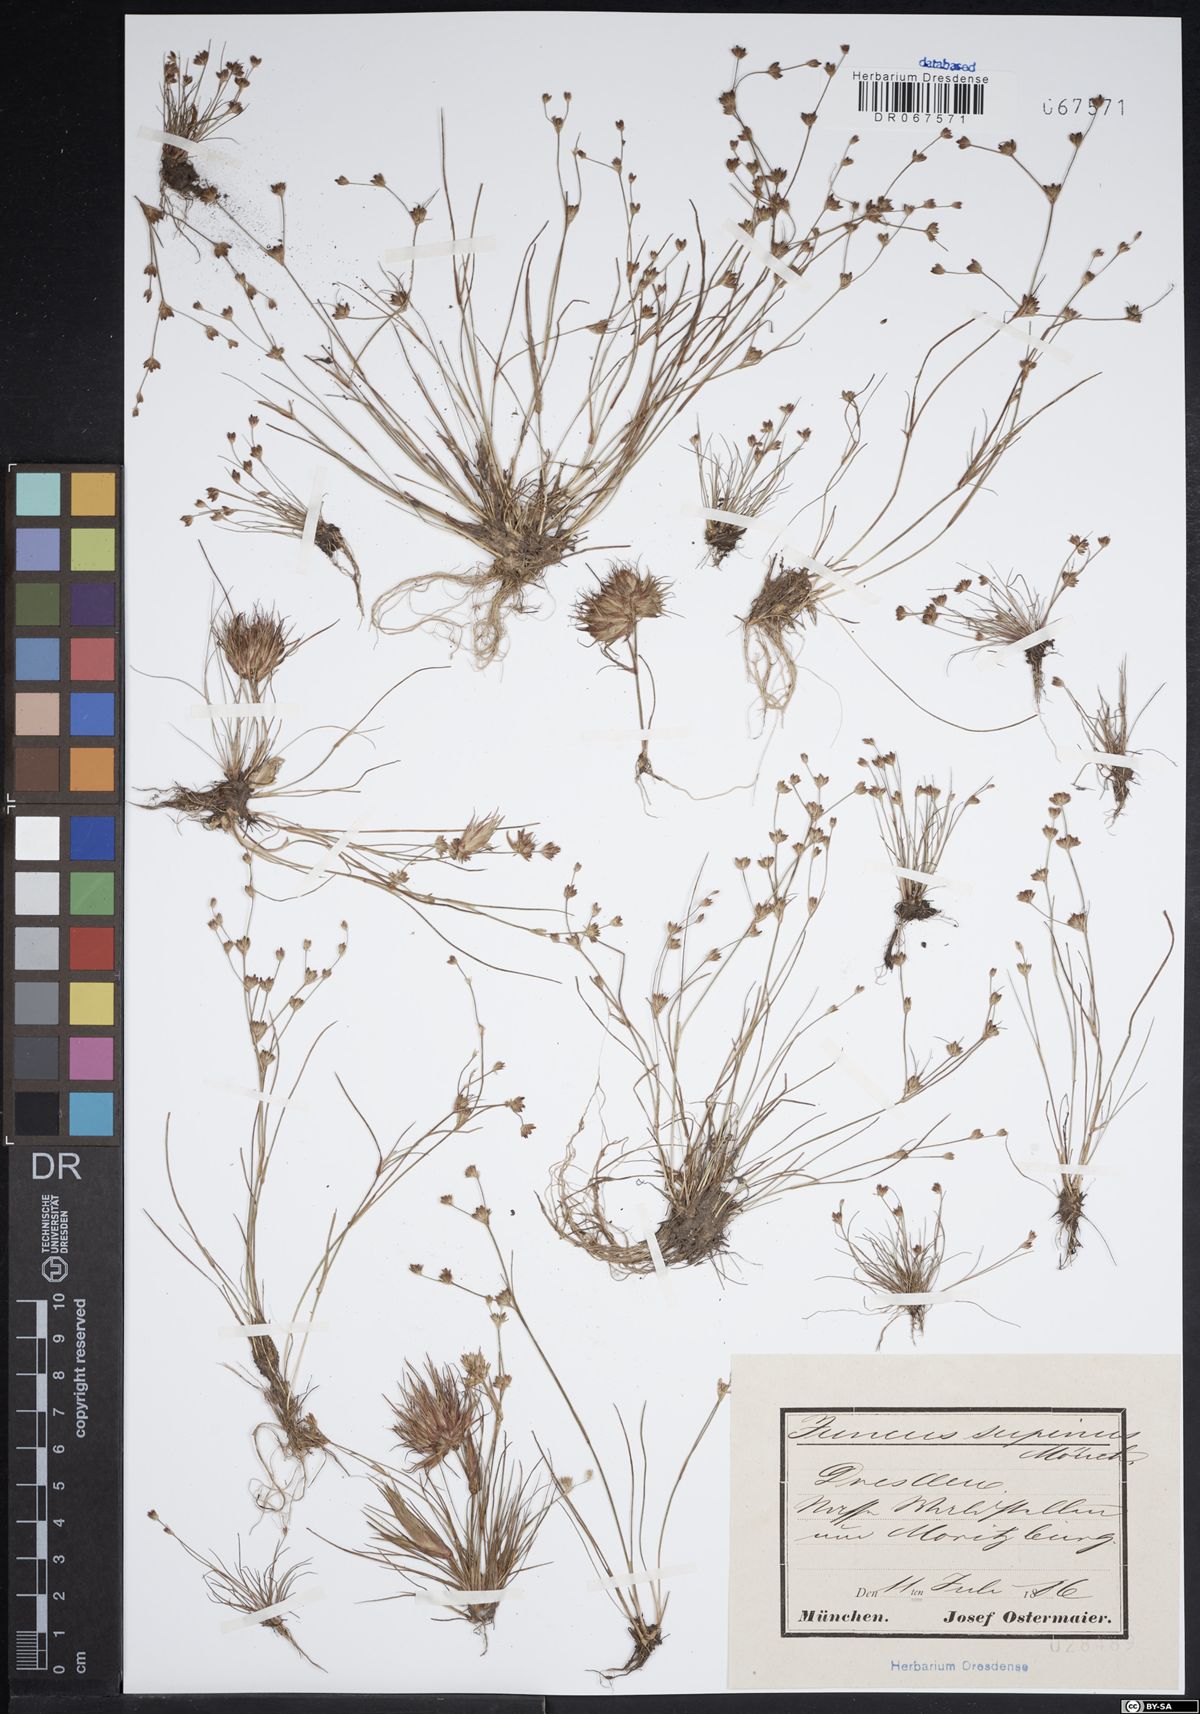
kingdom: Plantae
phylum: Tracheophyta
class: Liliopsida
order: Poales
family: Juncaceae
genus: Juncus
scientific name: Juncus bulbosus
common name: Bulbous rush
